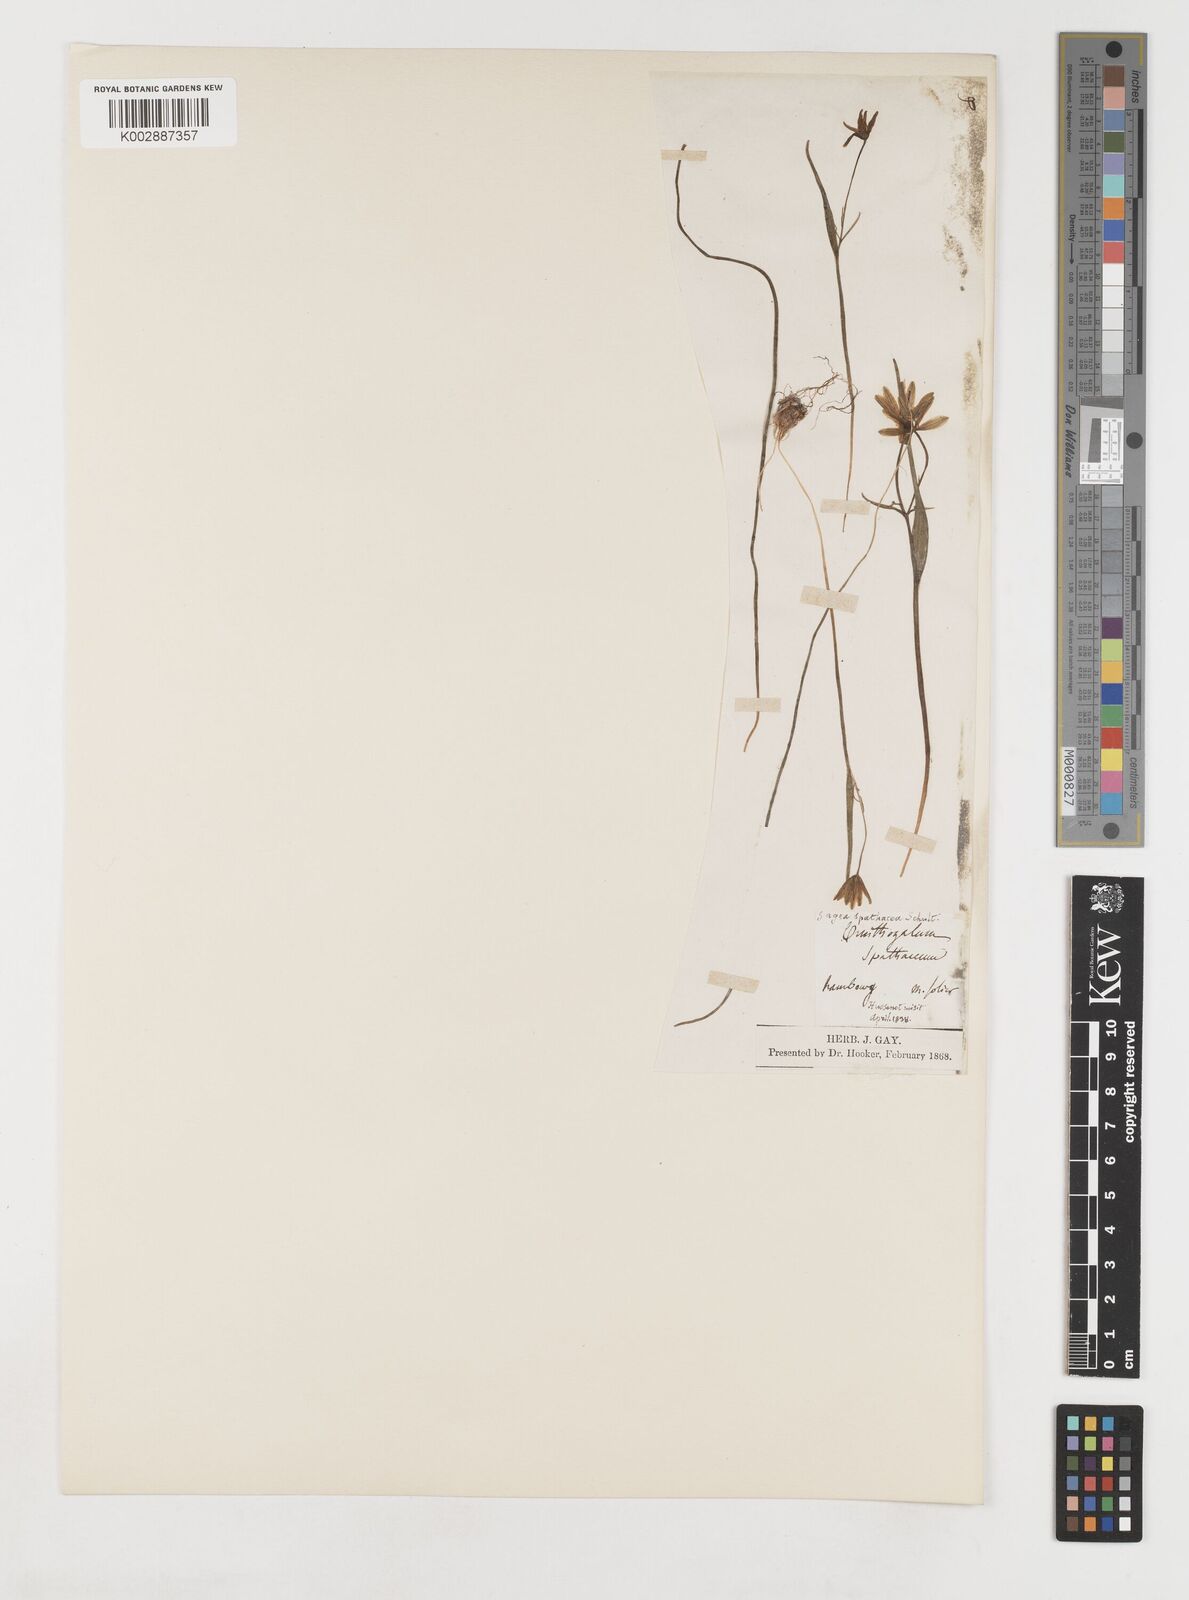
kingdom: Plantae
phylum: Tracheophyta
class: Liliopsida
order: Liliales
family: Liliaceae
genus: Gagea
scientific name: Gagea spathacea
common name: Belgian gagea
